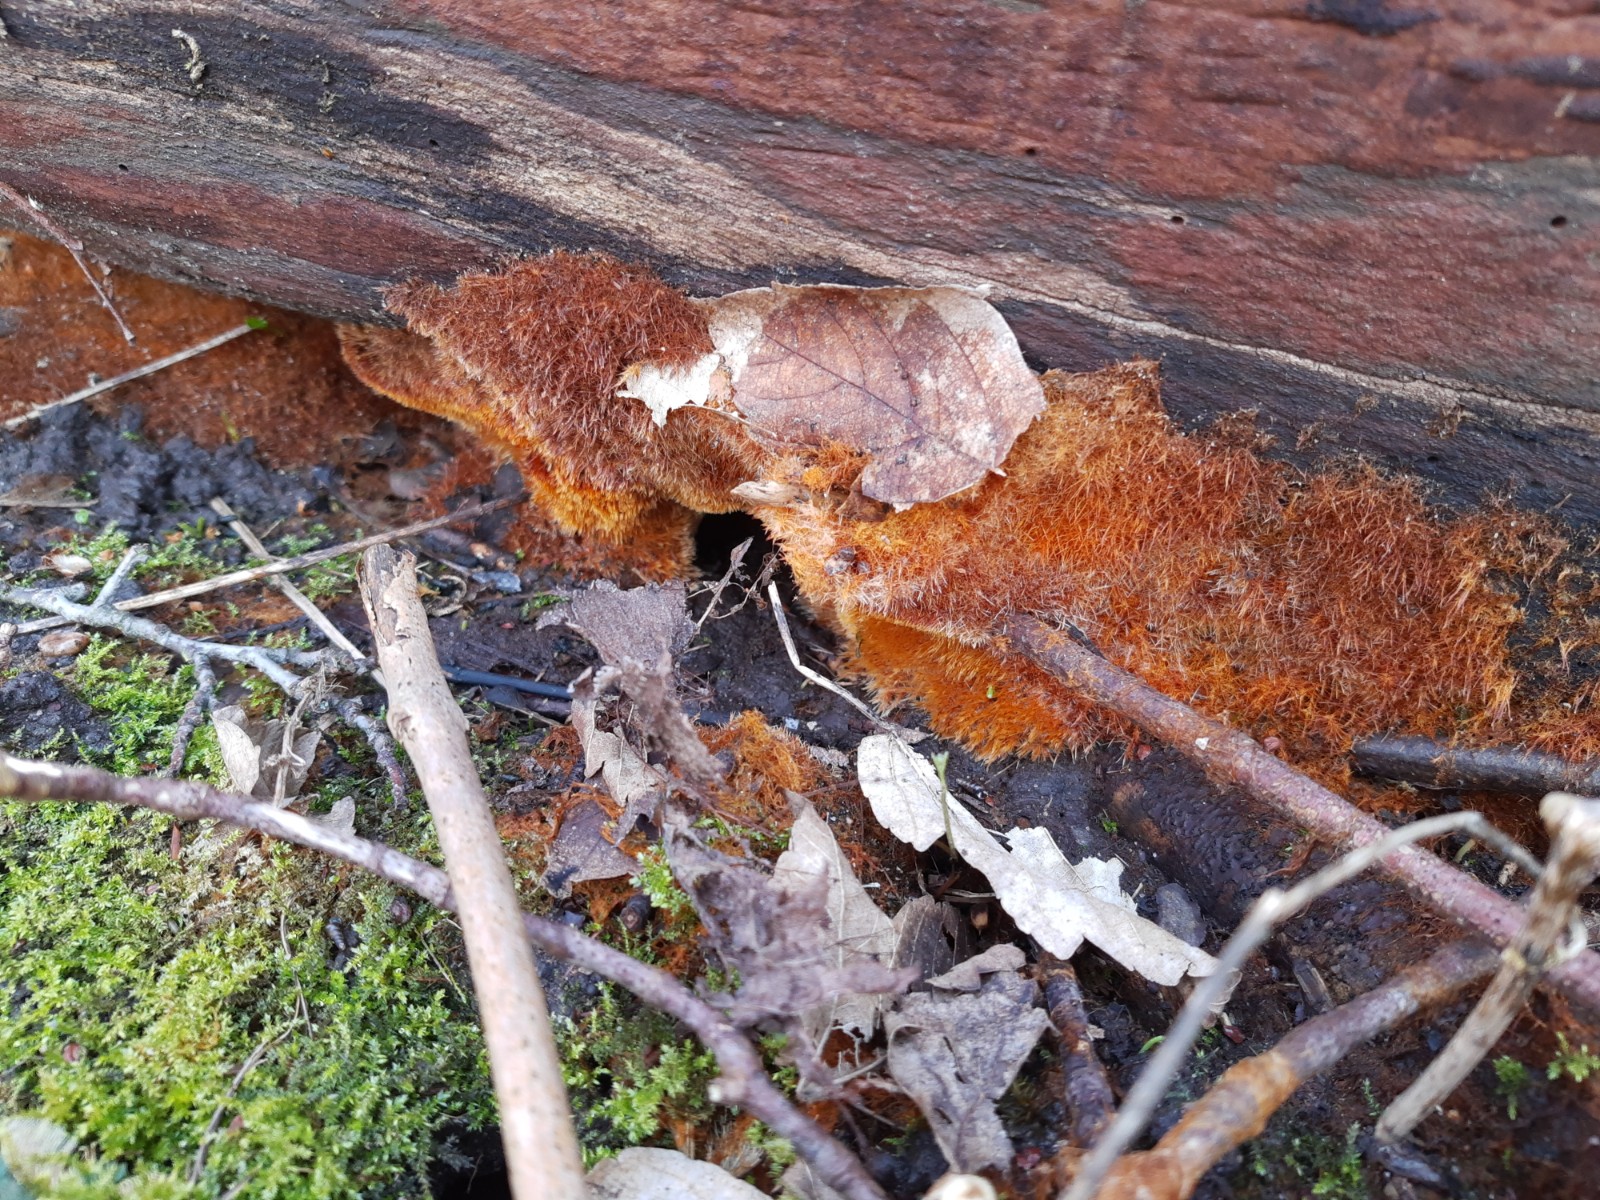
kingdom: Fungi
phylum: Basidiomycota
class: Agaricomycetes
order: Agaricales
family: Psathyrellaceae
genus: Ozonium
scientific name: Ozonium
